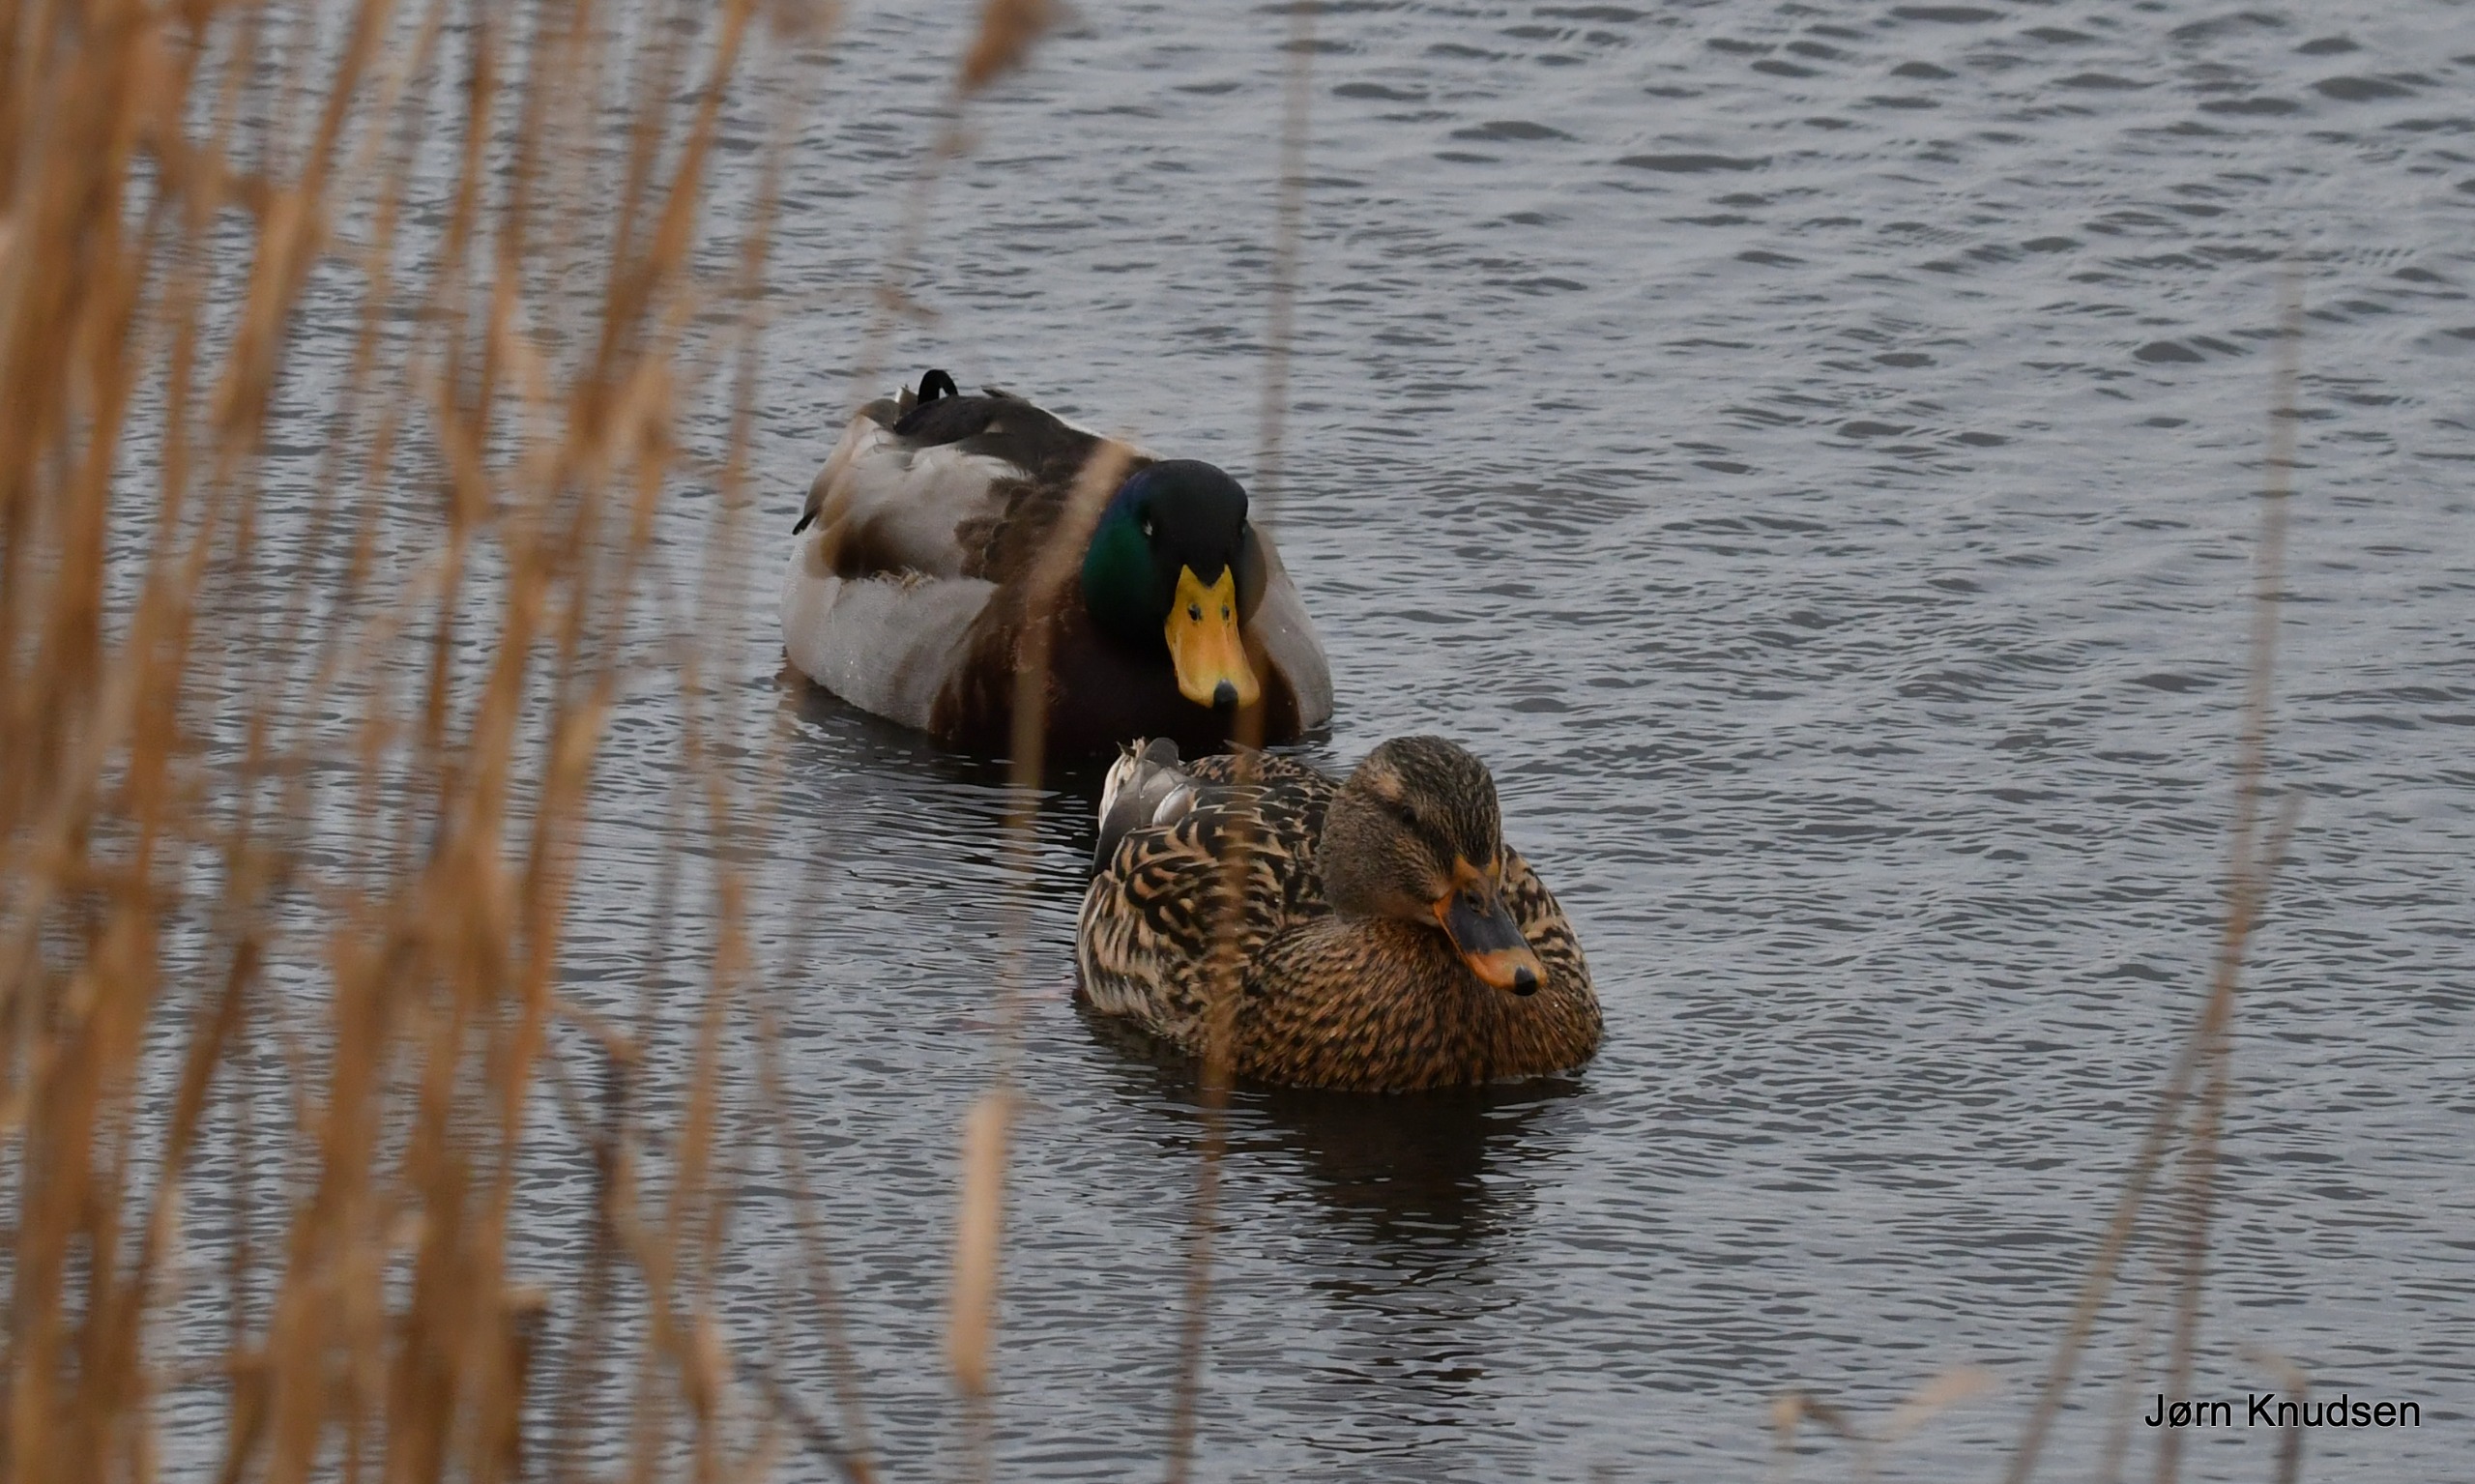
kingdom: Animalia
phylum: Chordata
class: Aves
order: Anseriformes
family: Anatidae
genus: Anas
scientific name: Anas platyrhynchos
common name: Gråand
